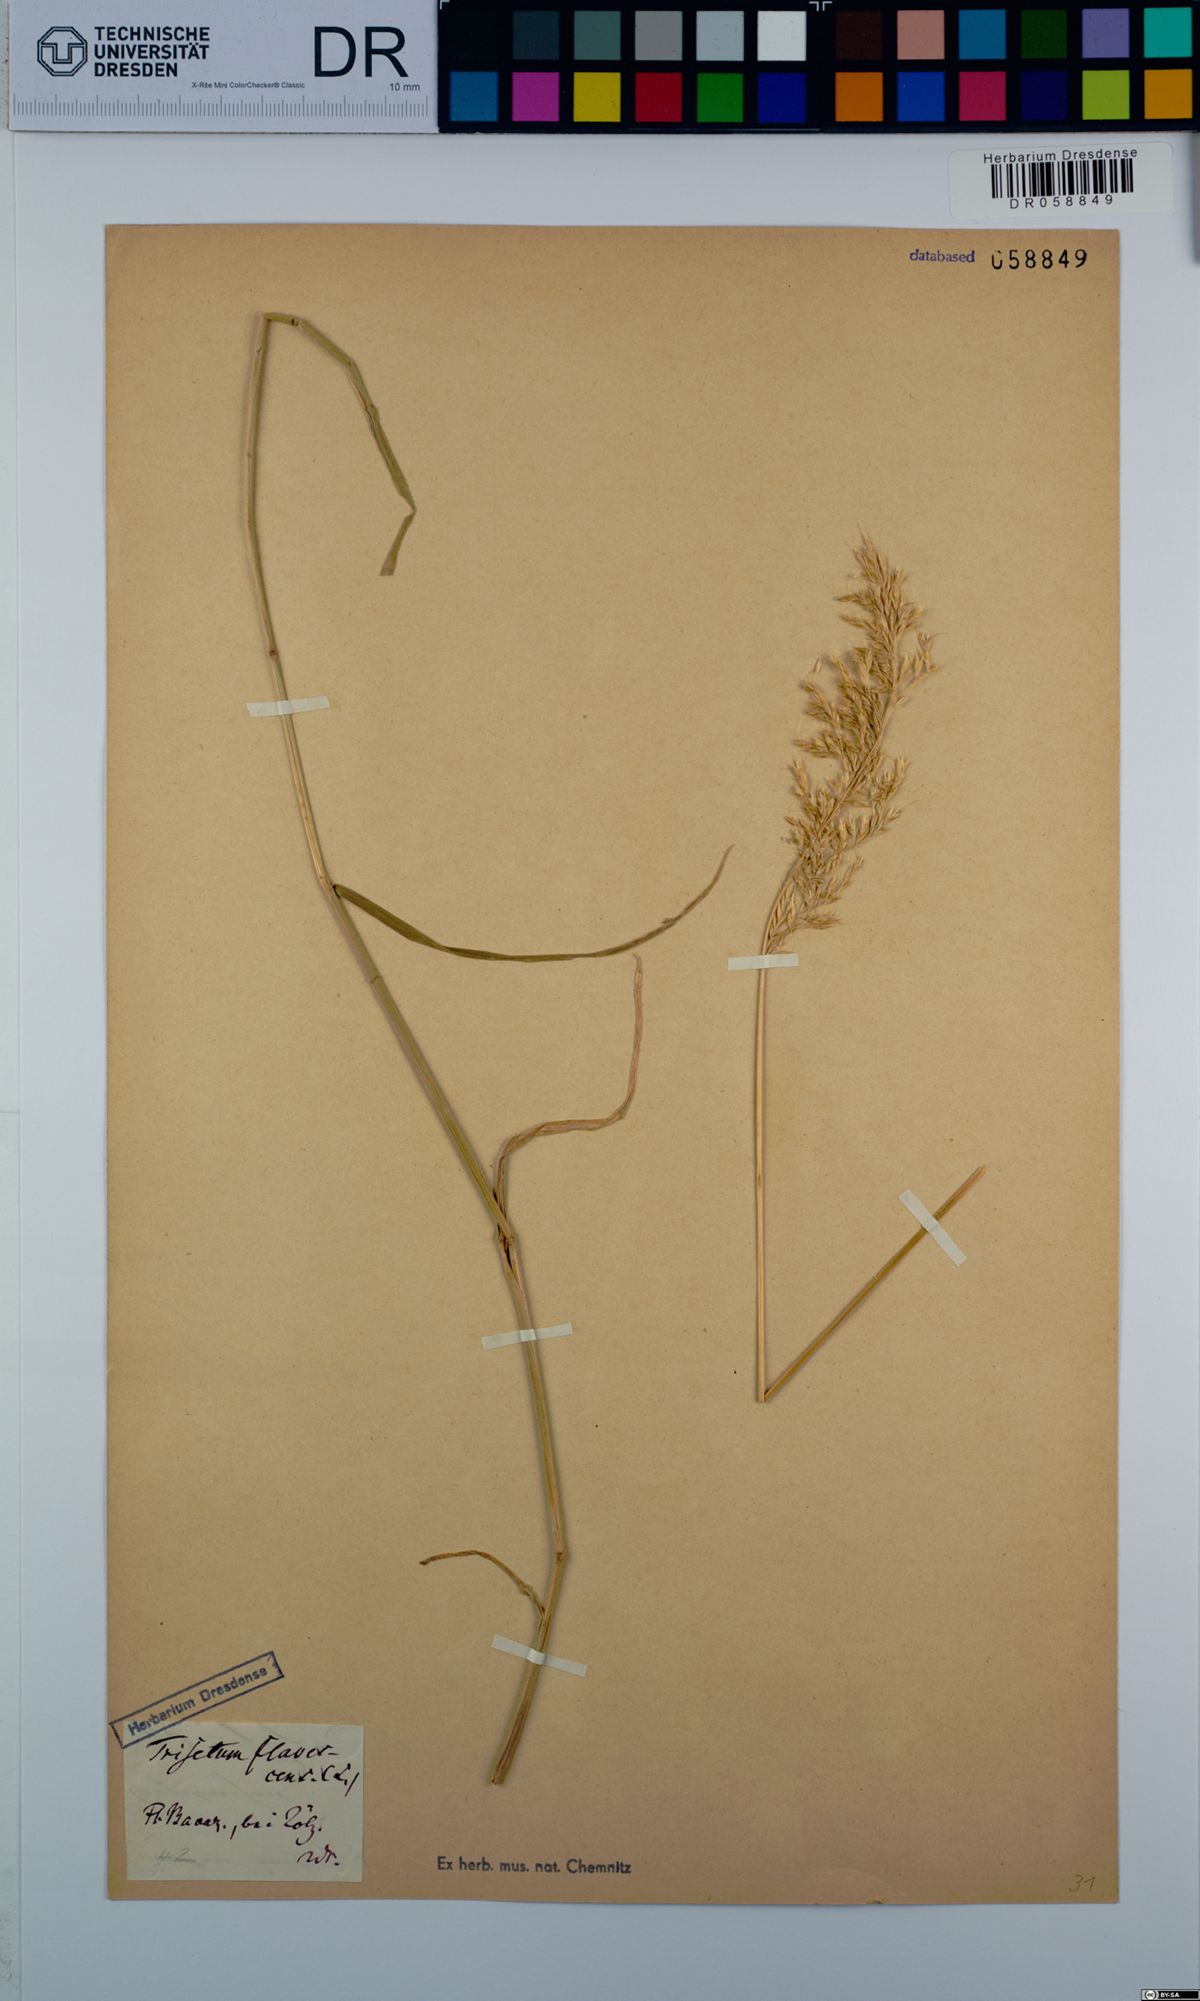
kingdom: Plantae
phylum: Tracheophyta
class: Liliopsida
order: Poales
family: Poaceae
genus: Trisetum
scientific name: Trisetum flavescens
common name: Yellow oat-grass
